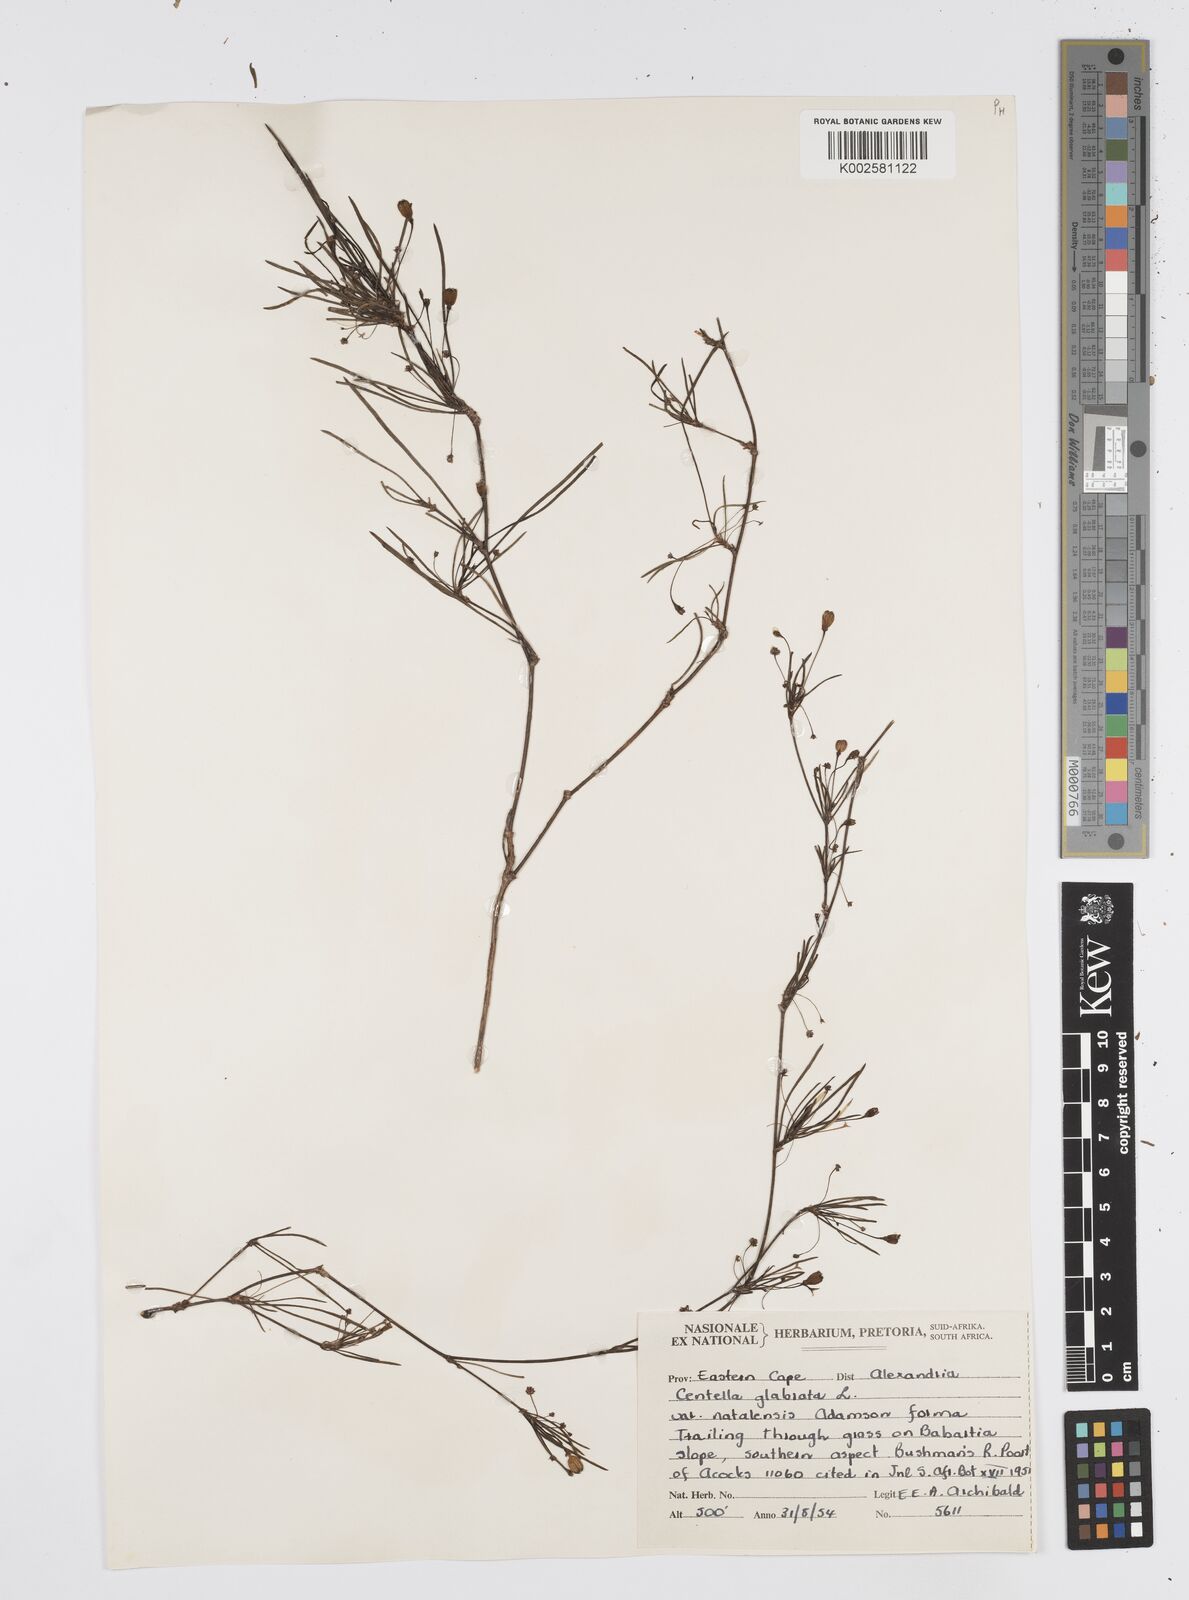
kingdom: Plantae
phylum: Tracheophyta
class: Magnoliopsida
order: Apiales
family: Apiaceae
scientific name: Apiaceae
